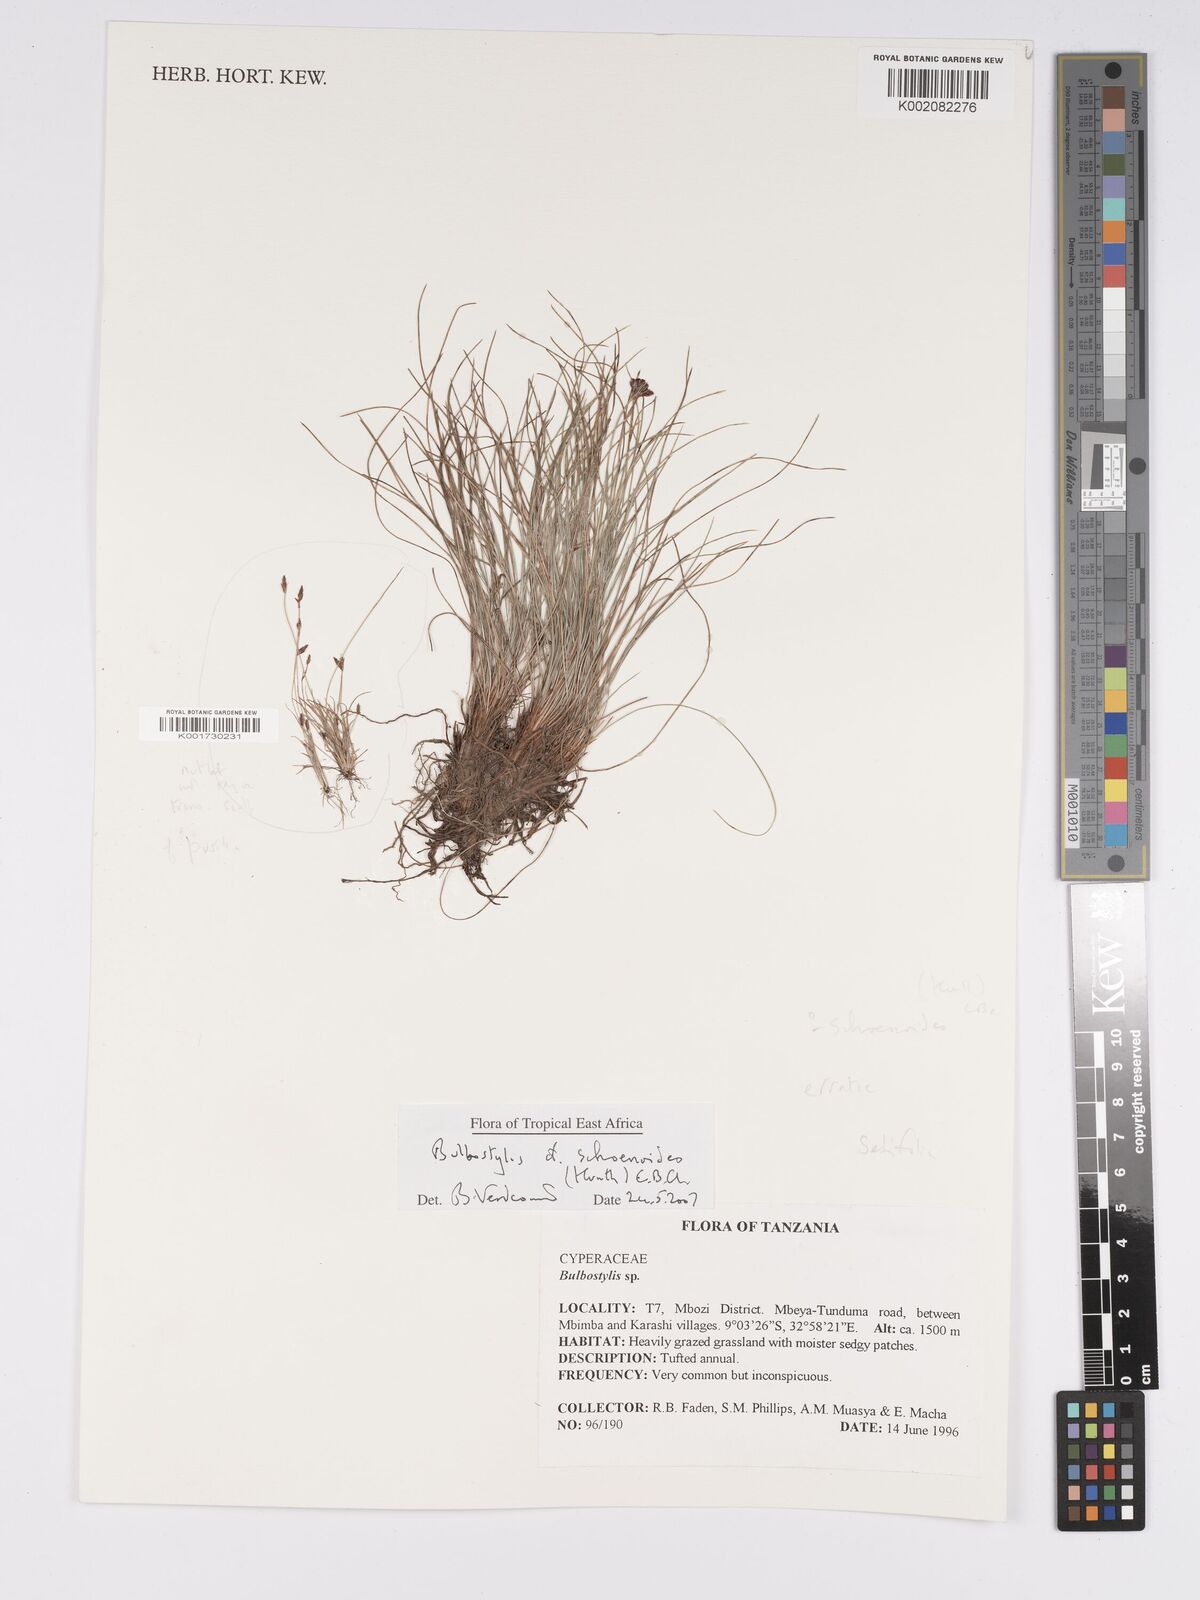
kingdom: Plantae
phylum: Tracheophyta
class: Liliopsida
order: Poales
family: Cyperaceae
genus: Bulbostylis
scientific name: Bulbostylis schoenoides
